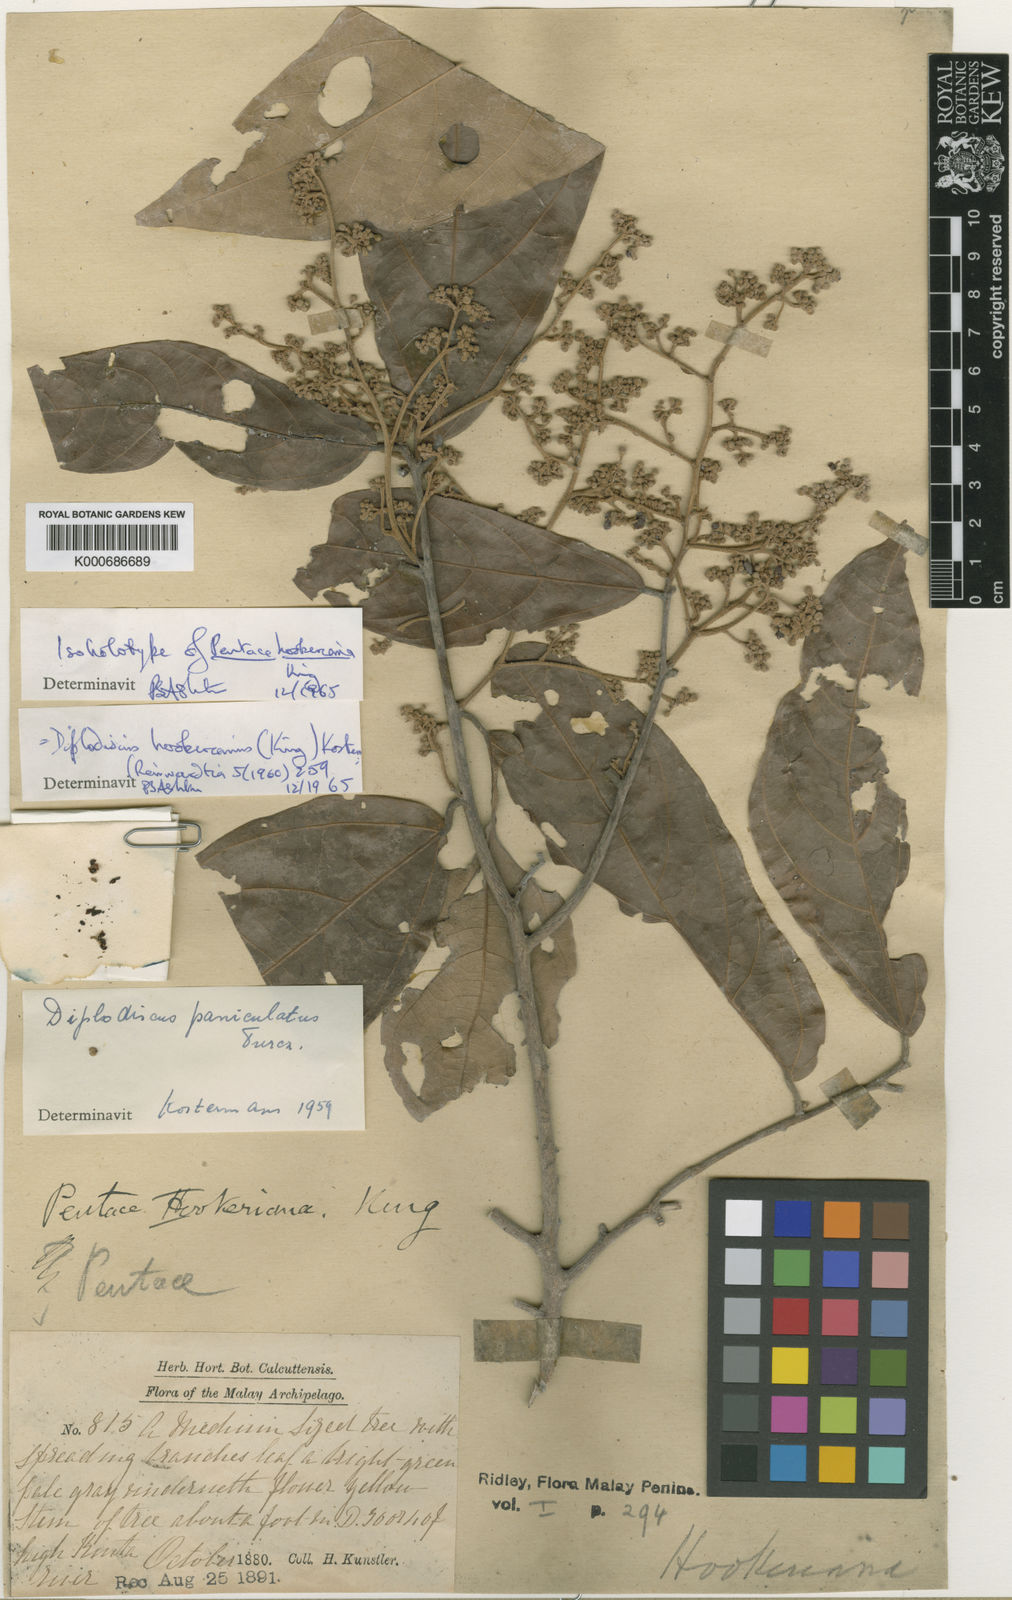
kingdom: Plantae
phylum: Tracheophyta
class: Magnoliopsida
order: Malvales
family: Malvaceae
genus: Diplodiscus
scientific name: Diplodiscus hookerianus
